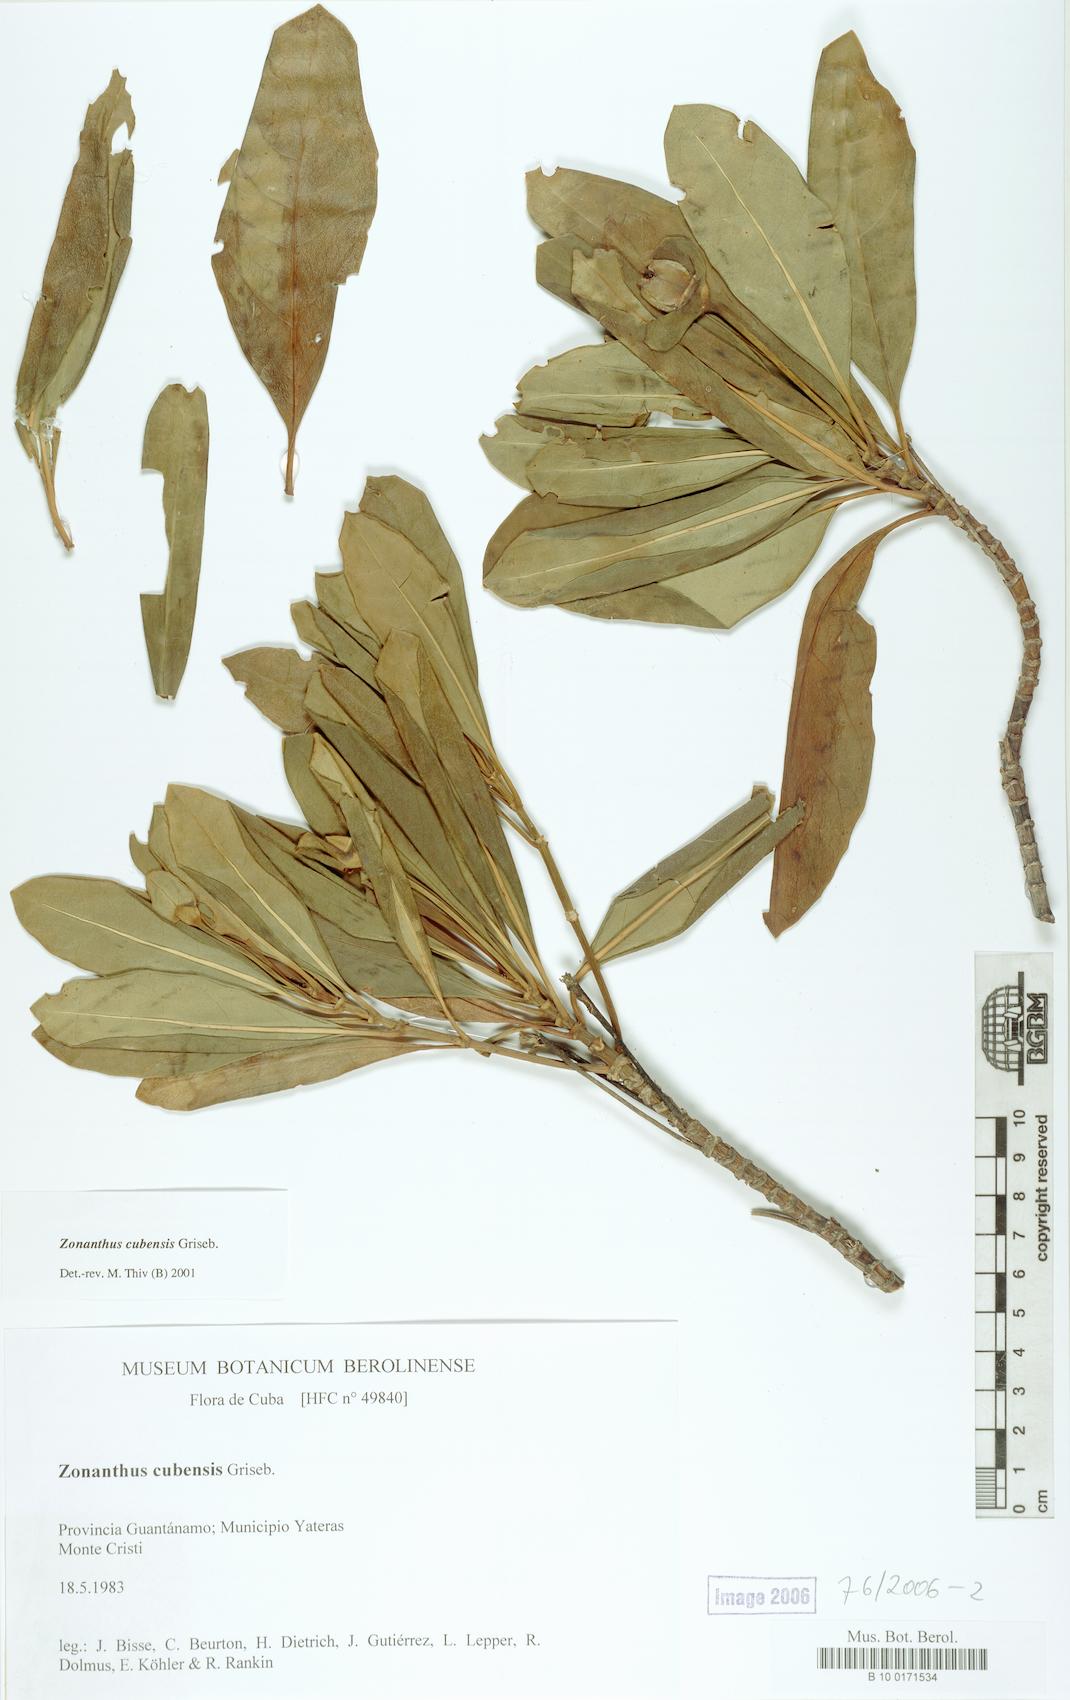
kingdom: Plantae
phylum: Tracheophyta
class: Magnoliopsida
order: Gentianales
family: Gentianaceae
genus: Zonanthus
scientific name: Zonanthus cubensis
